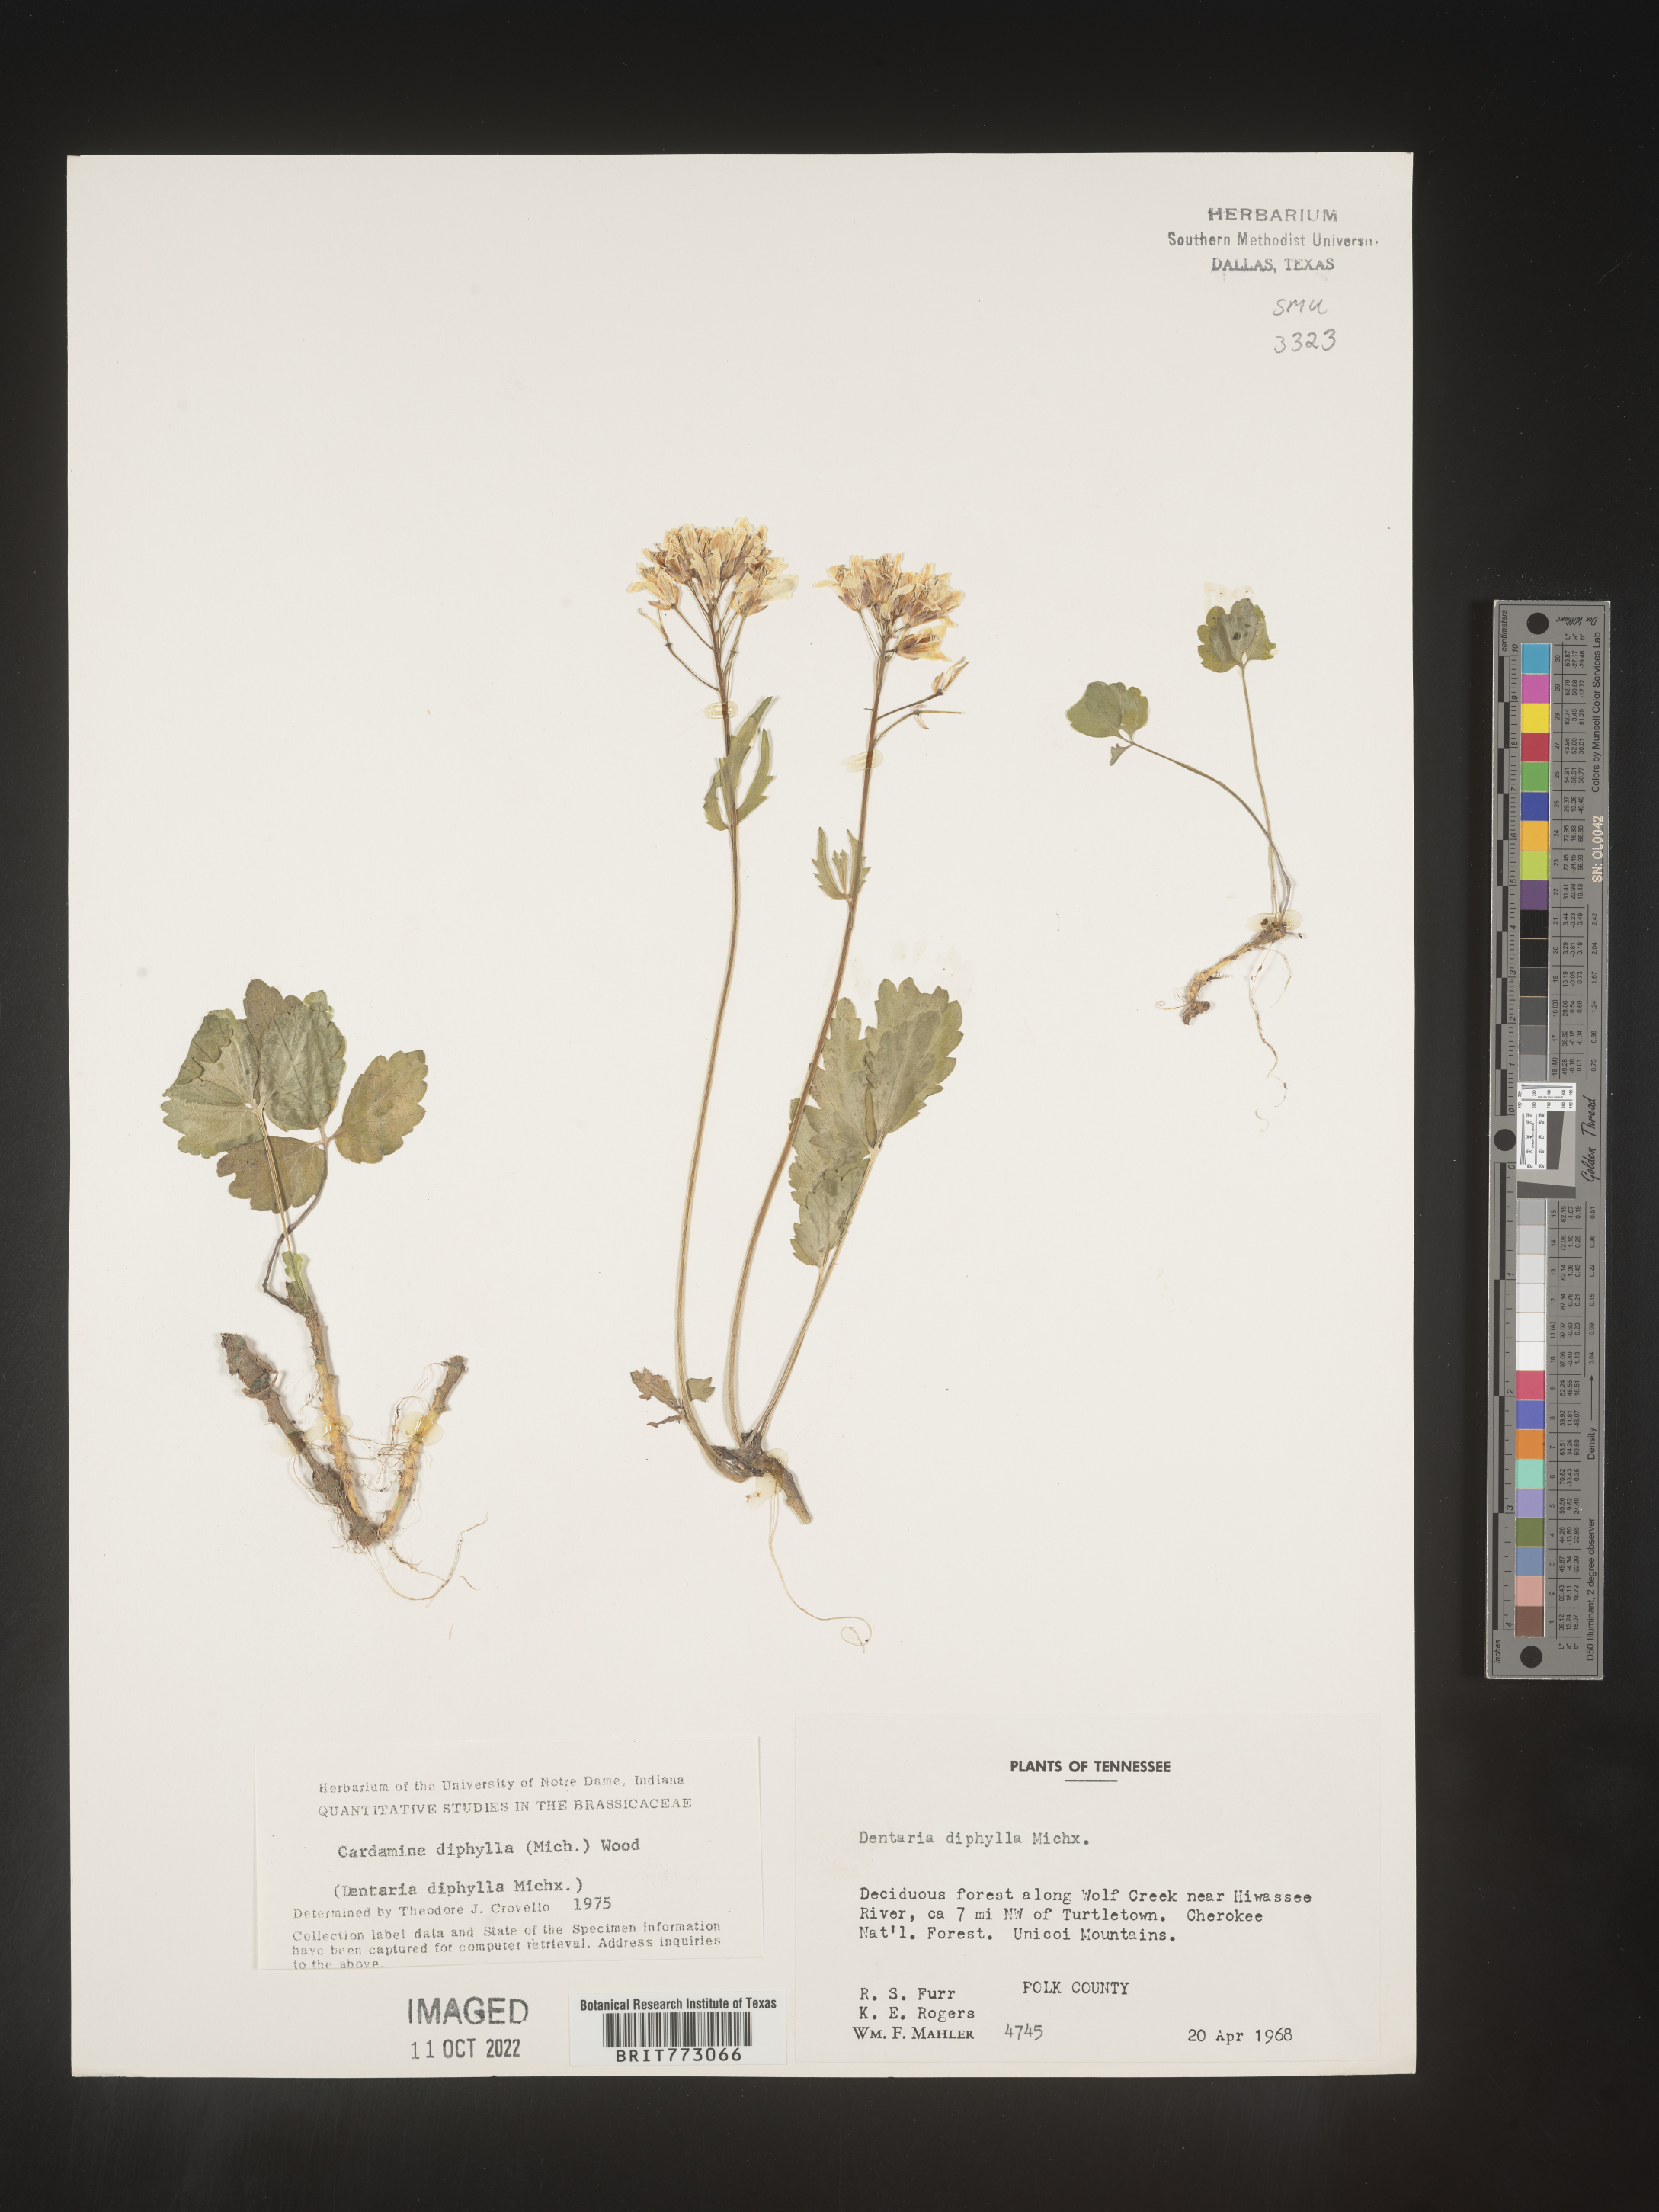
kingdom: Plantae
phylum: Tracheophyta
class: Magnoliopsida
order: Brassicales
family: Brassicaceae
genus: Cardamine
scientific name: Cardamine diphylla
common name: Broad-leaved toothwort
